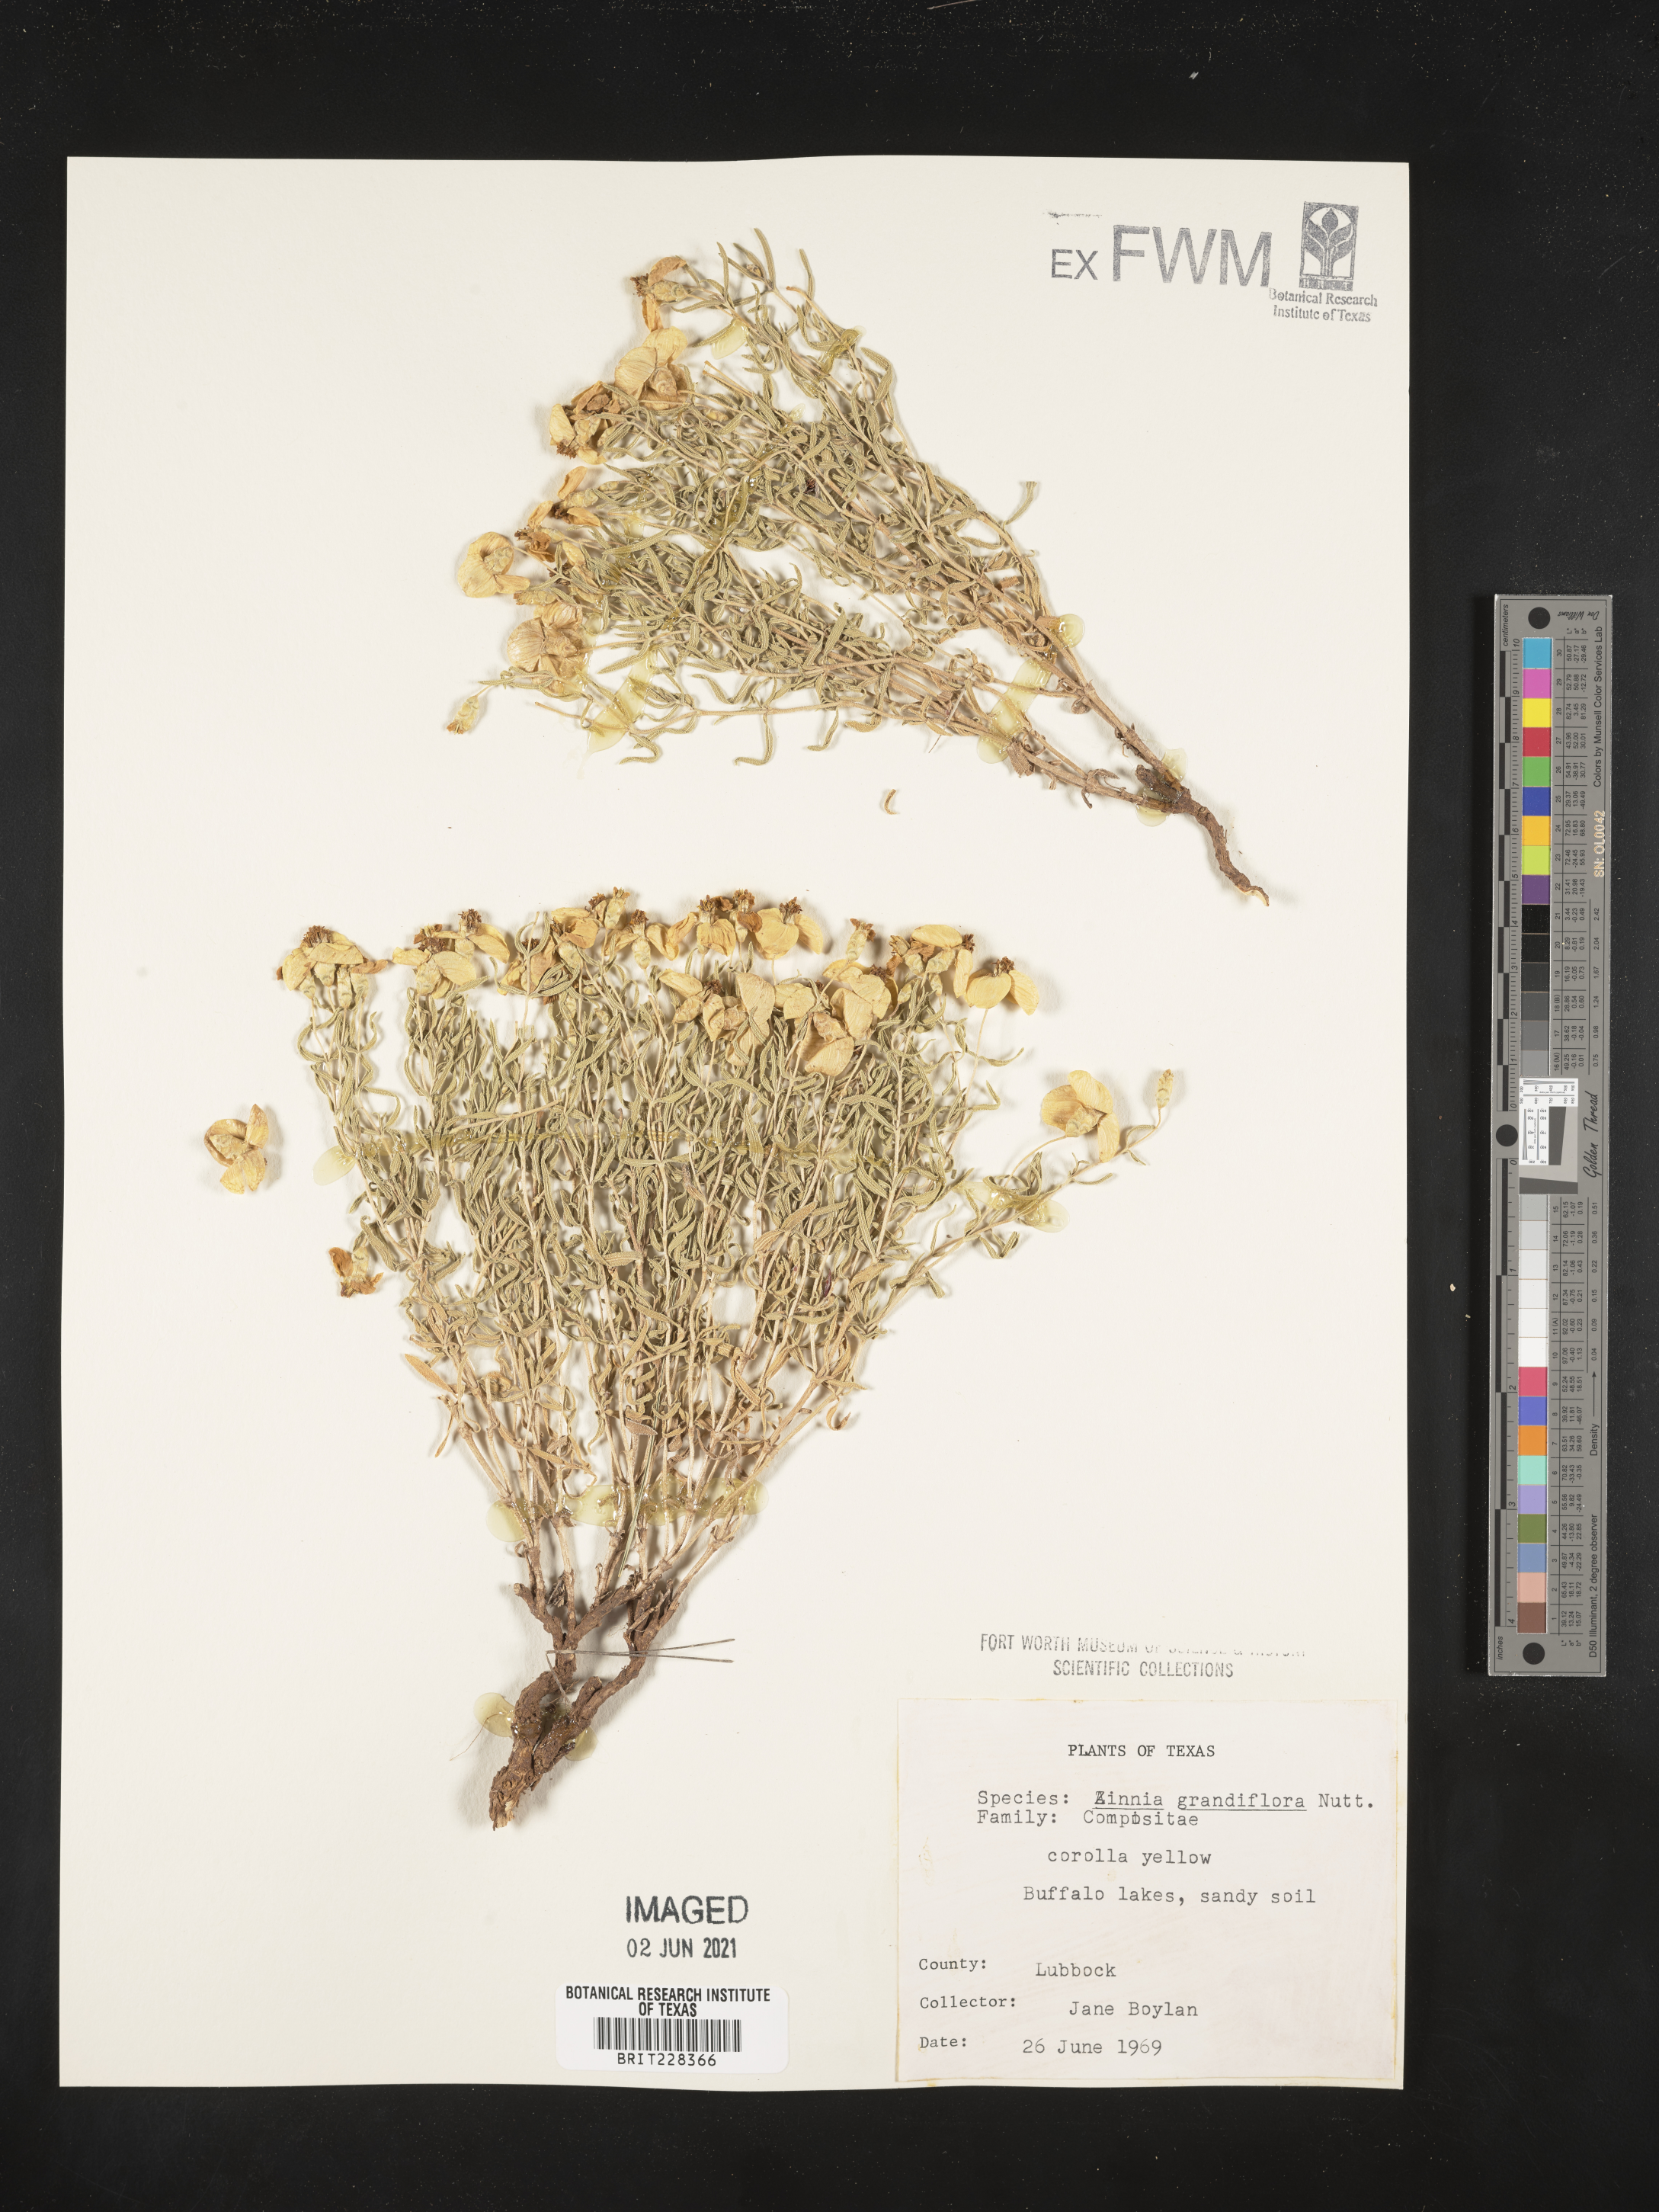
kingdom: Plantae
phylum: Tracheophyta
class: Magnoliopsida
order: Asterales
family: Asteraceae
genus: Zinnia
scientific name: Zinnia grandiflora
